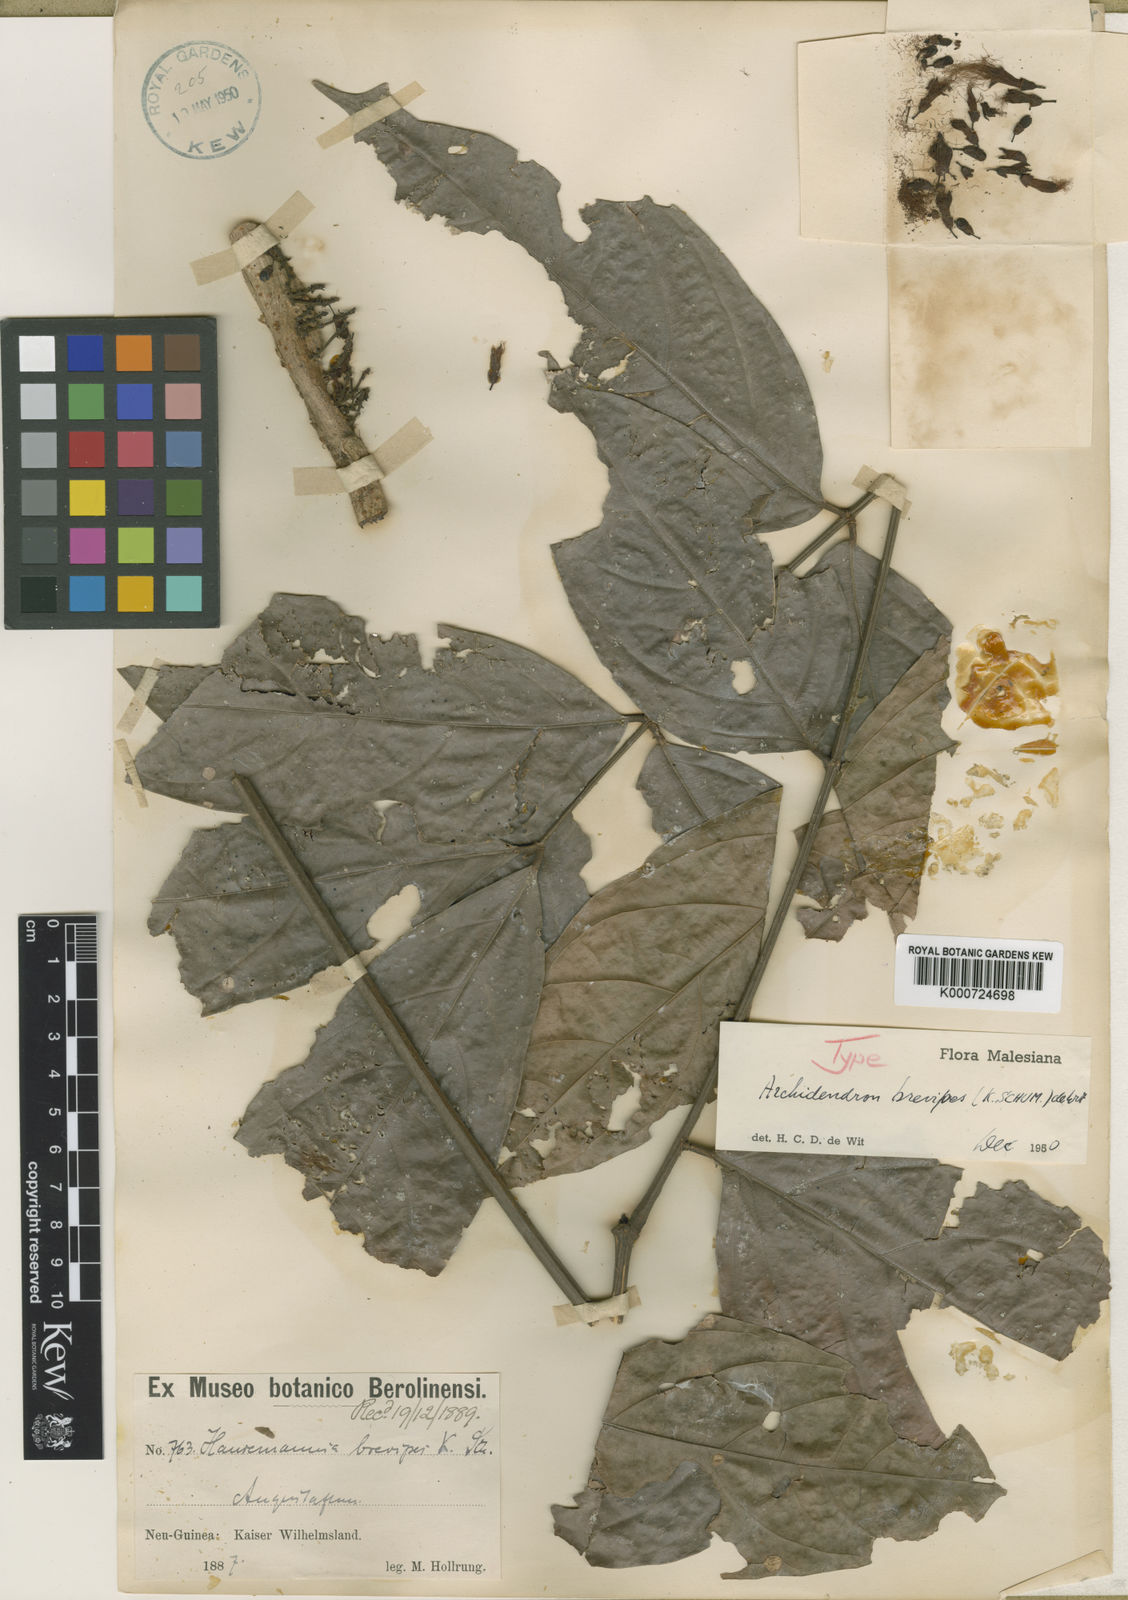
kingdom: Plantae
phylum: Tracheophyta
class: Magnoliopsida
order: Fabales
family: Fabaceae
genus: Archidendron
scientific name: Archidendron brevipes
